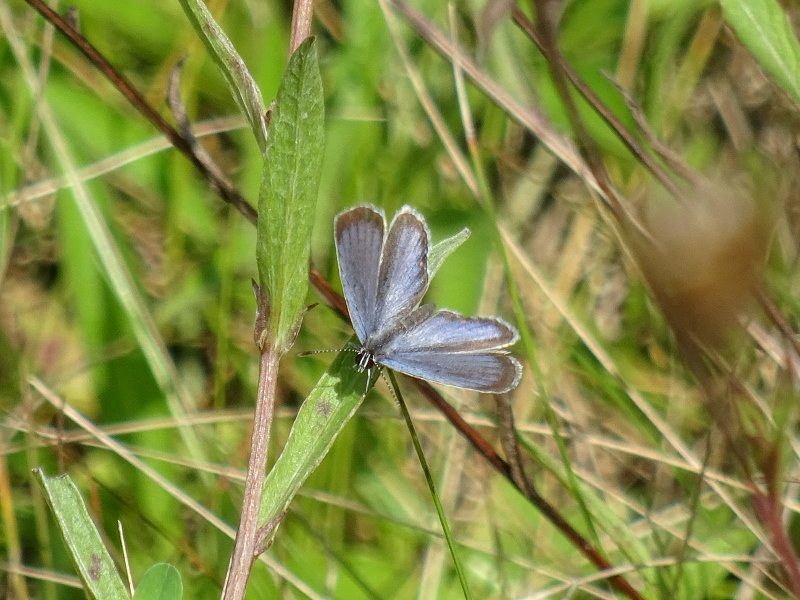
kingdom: Animalia
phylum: Arthropoda
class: Insecta
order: Lepidoptera
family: Lycaenidae
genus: Elkalyce
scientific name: Elkalyce comyntas
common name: Eastern Tailed-Blue
